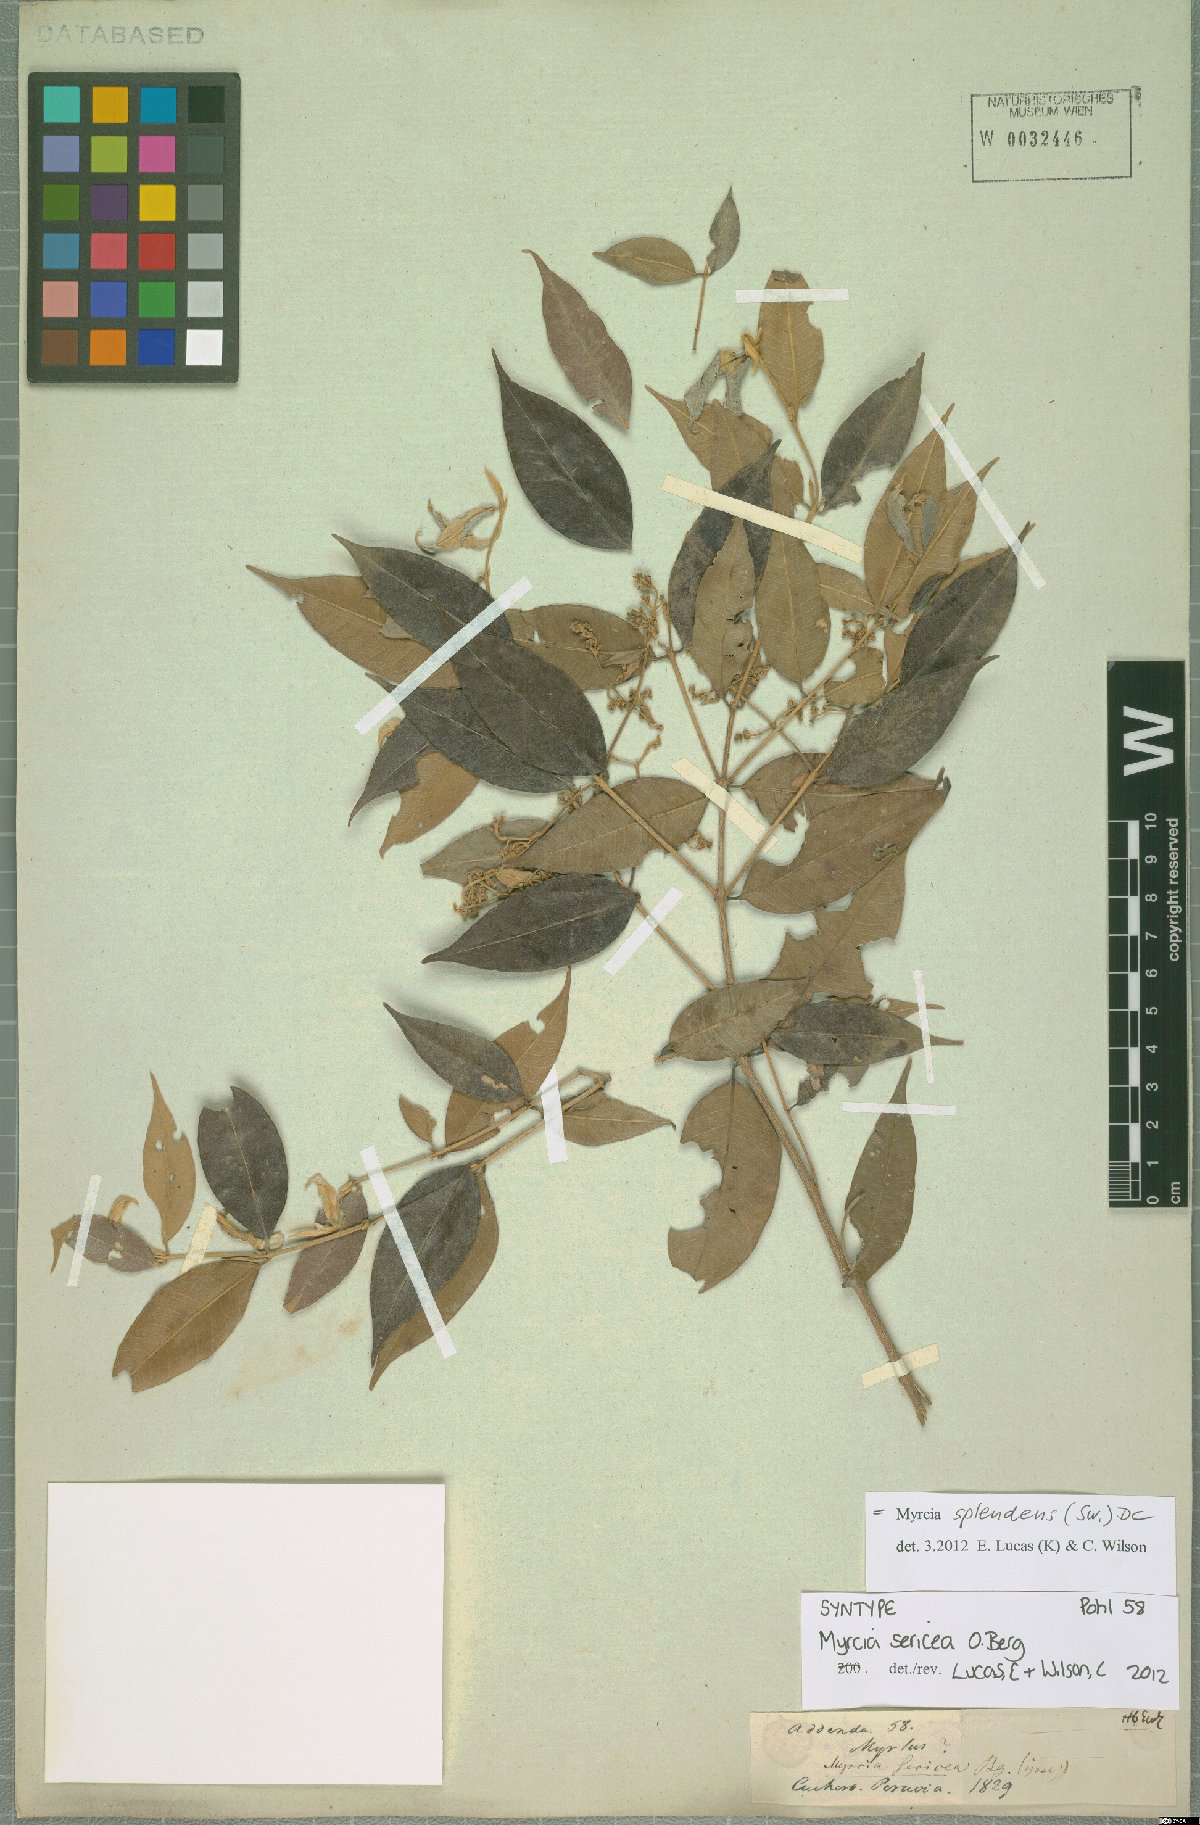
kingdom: Plantae
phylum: Tracheophyta
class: Magnoliopsida
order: Myrtales
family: Myrtaceae
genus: Myrcia
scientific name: Myrcia splendens
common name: Surinam cherry
